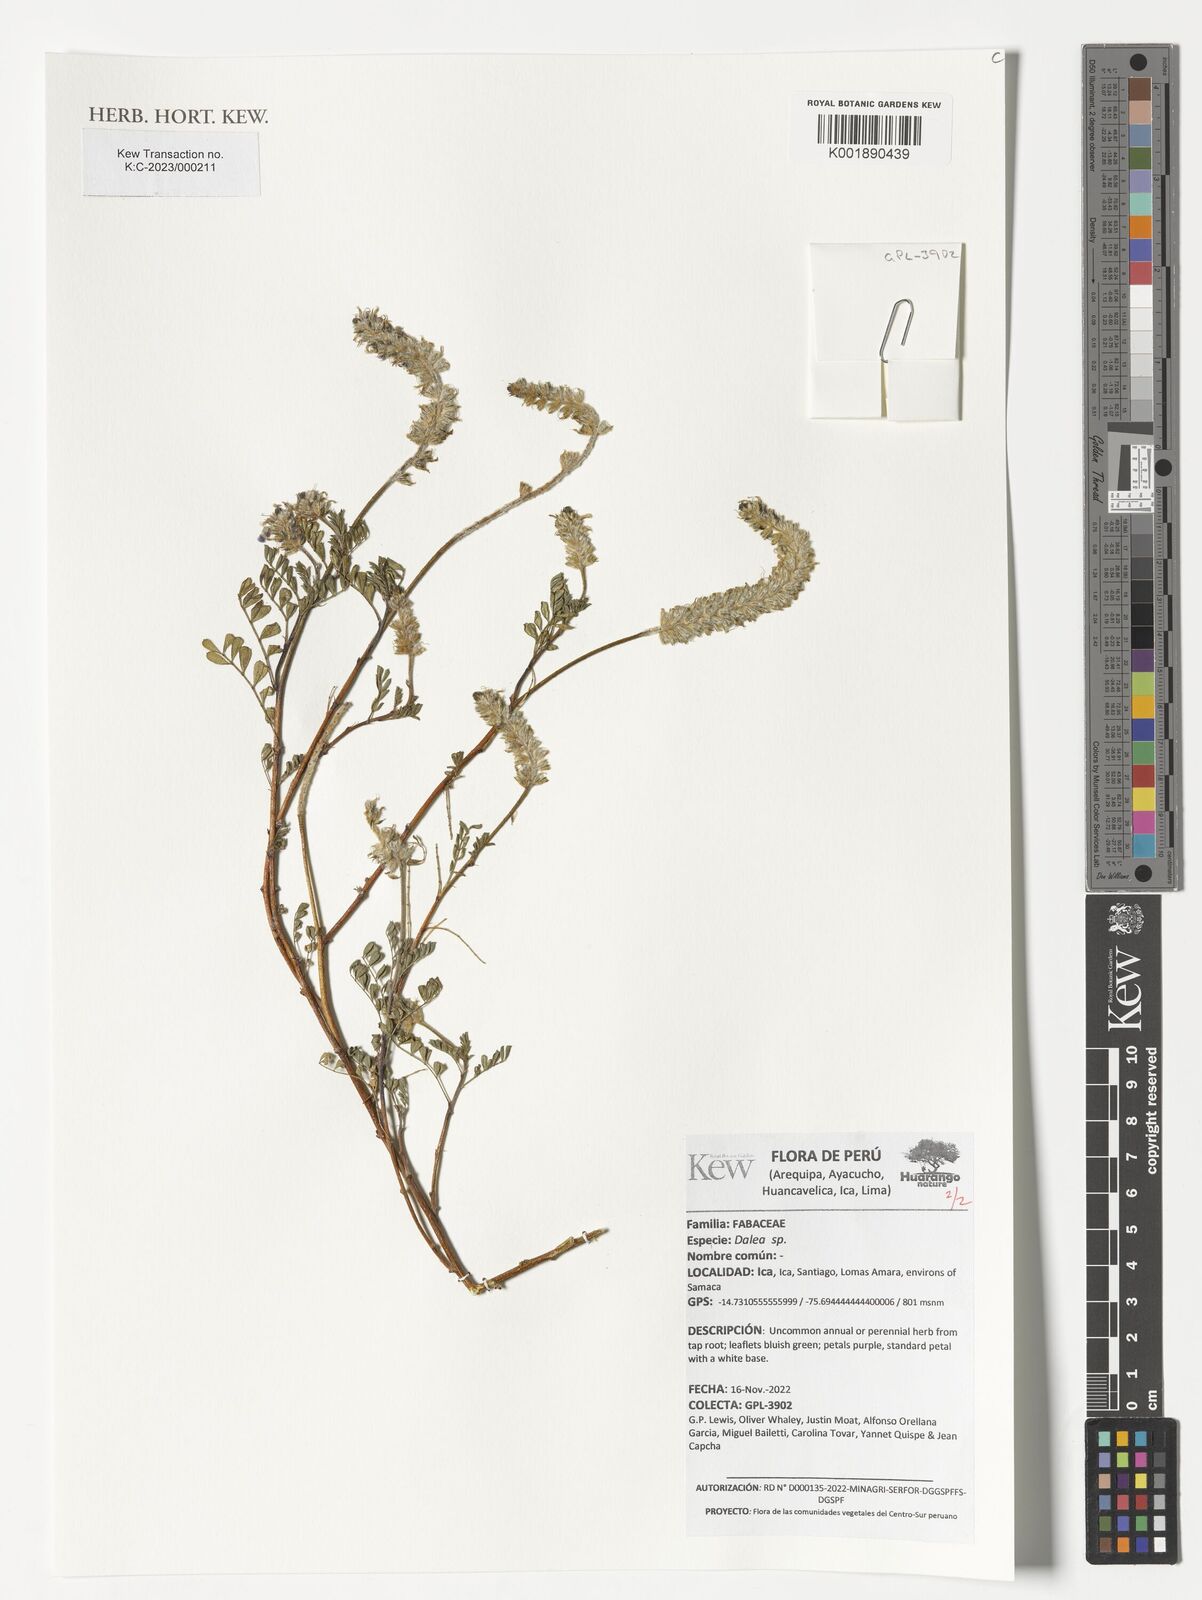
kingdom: Plantae
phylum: Tracheophyta
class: Magnoliopsida
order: Fabales
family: Fabaceae
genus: Dalea
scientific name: Dalea
